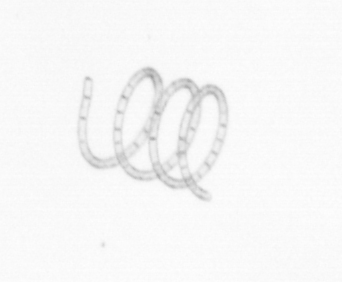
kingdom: Chromista
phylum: Ochrophyta
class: Bacillariophyceae
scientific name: Bacillariophyceae
